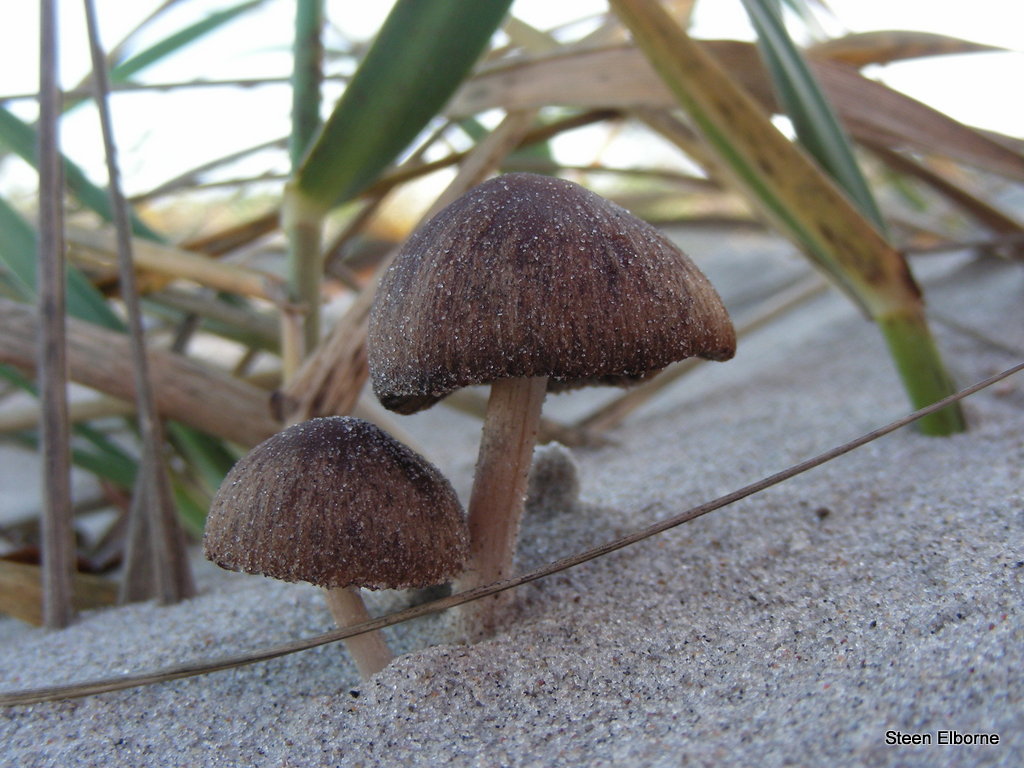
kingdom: Fungi
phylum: Basidiomycota
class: Agaricomycetes
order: Agaricales
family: Psathyrellaceae
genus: Psathyrella
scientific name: Psathyrella ammophila
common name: klit-mørkhat
